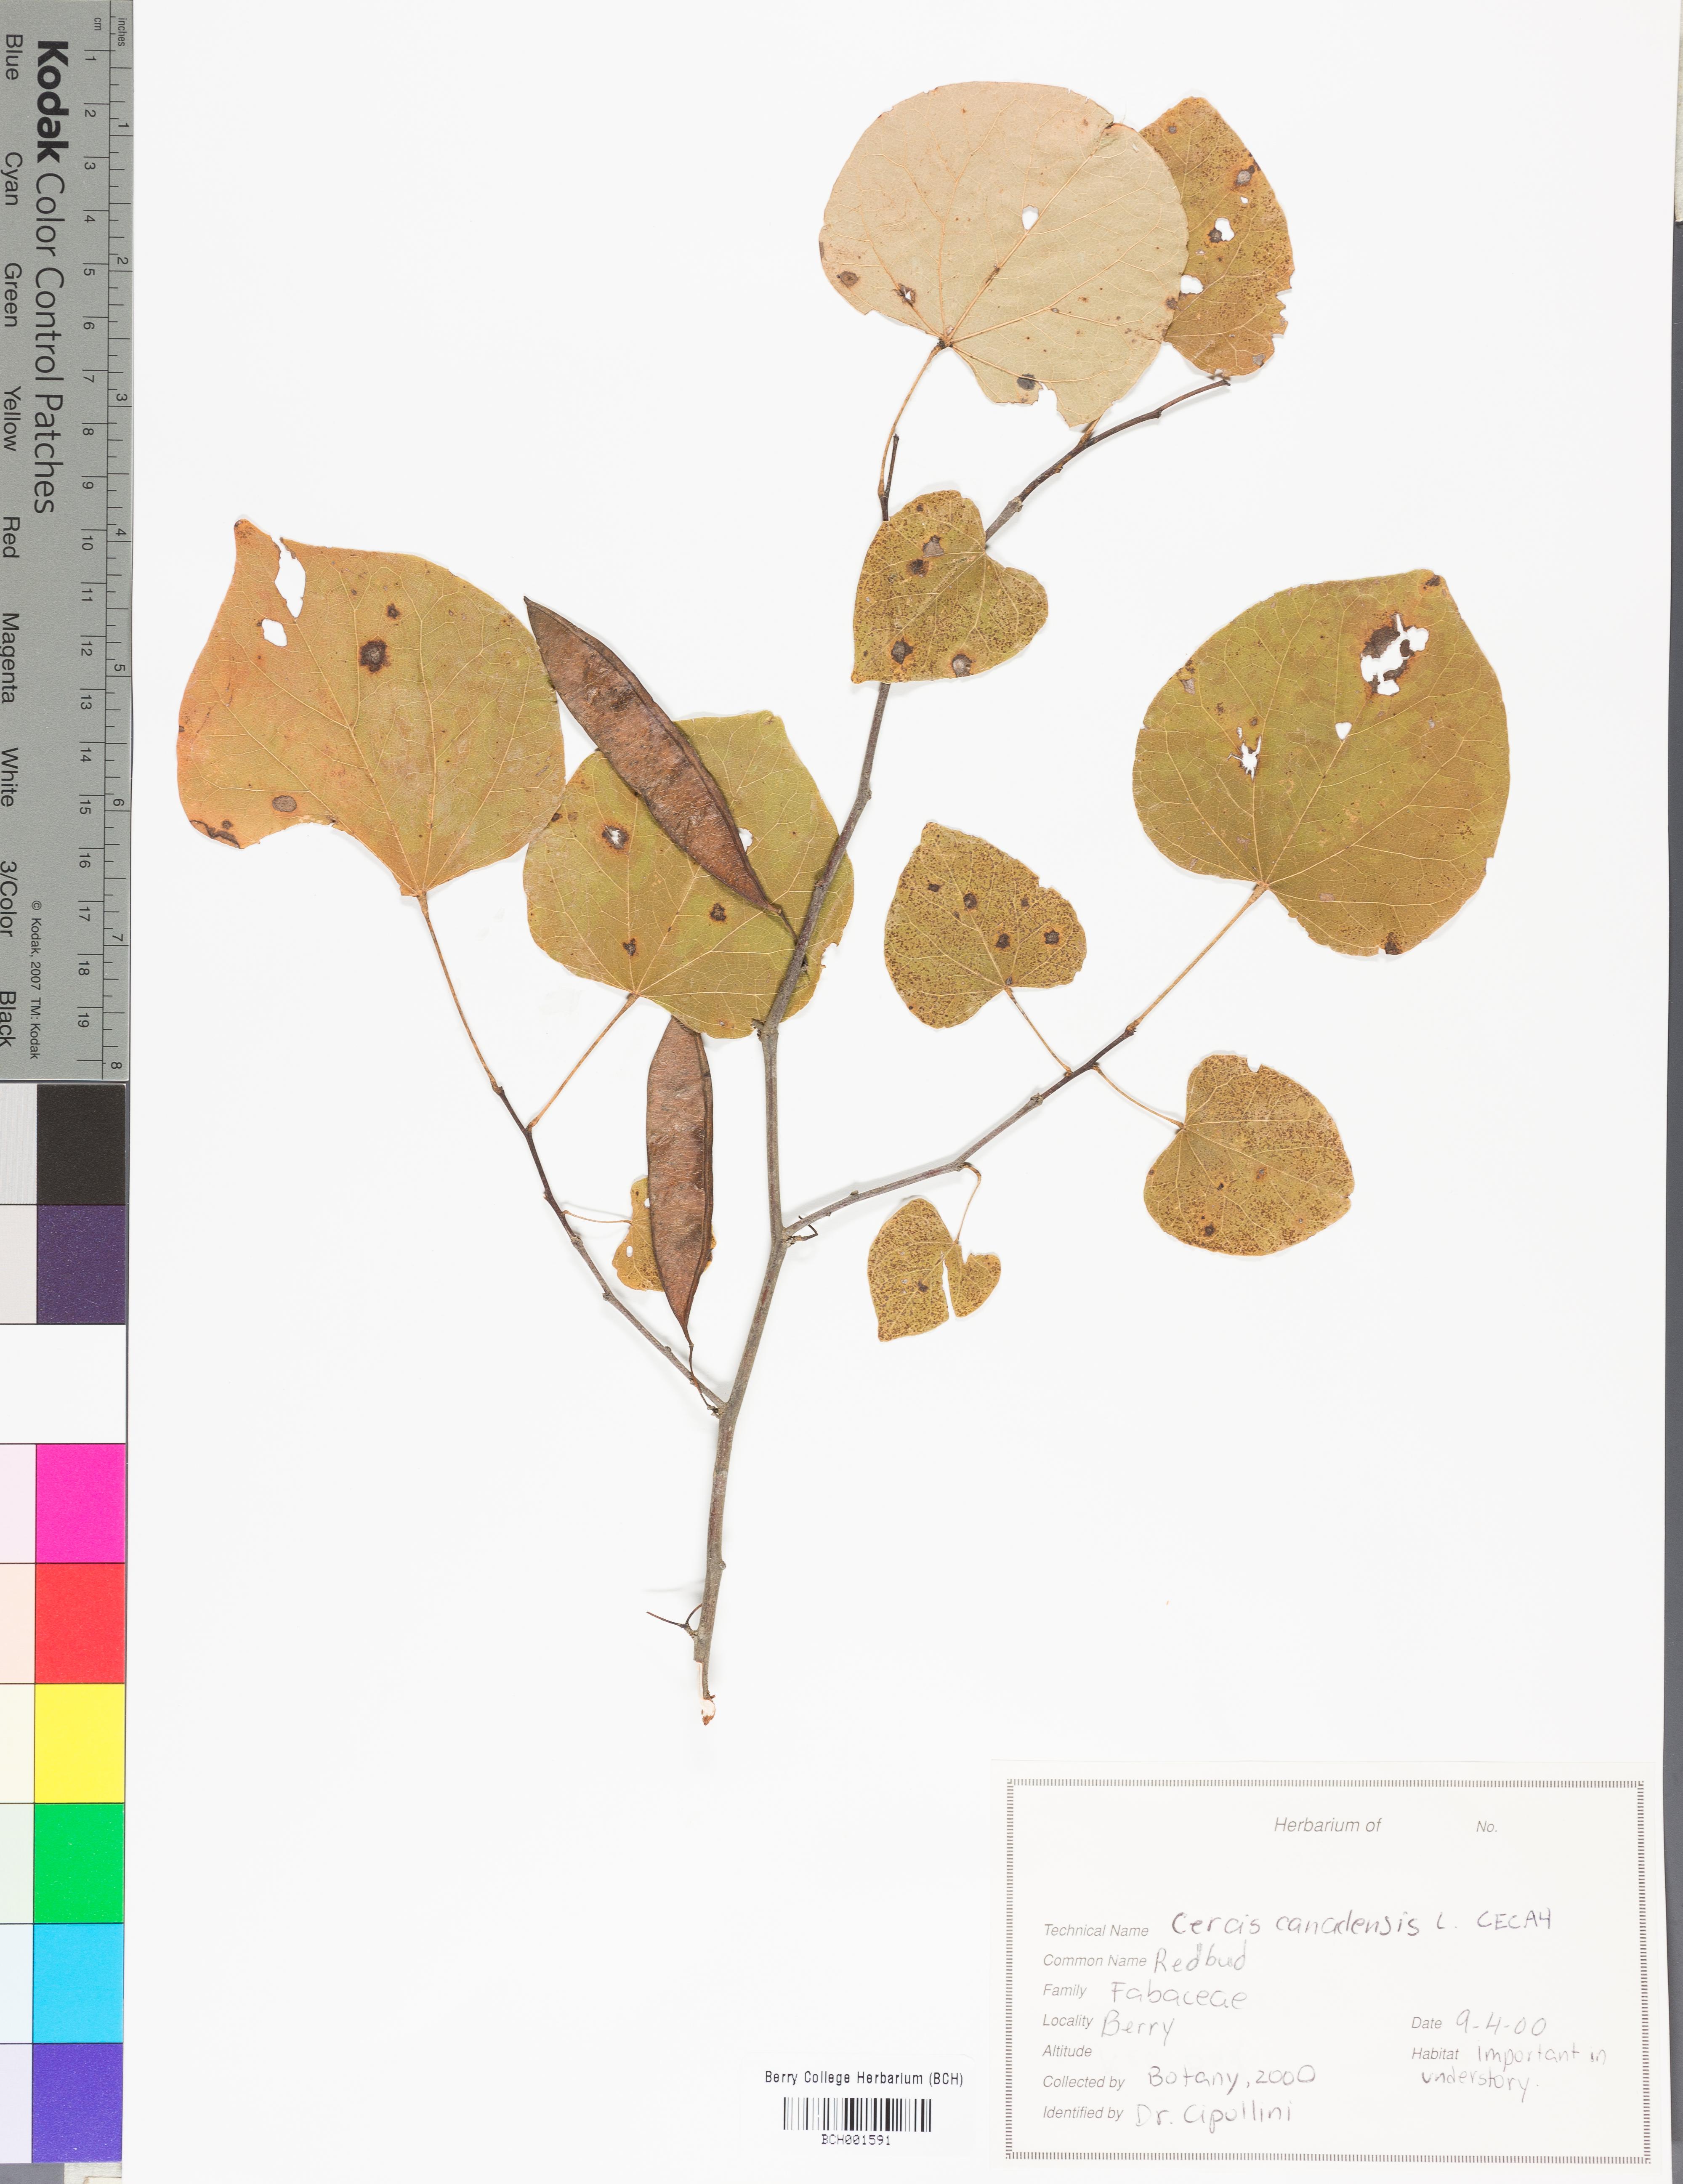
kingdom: Plantae
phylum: Tracheophyta
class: Magnoliopsida
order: Fabales
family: Fabaceae
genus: Cercis
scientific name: Cercis canadensis
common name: Eastern redbud
